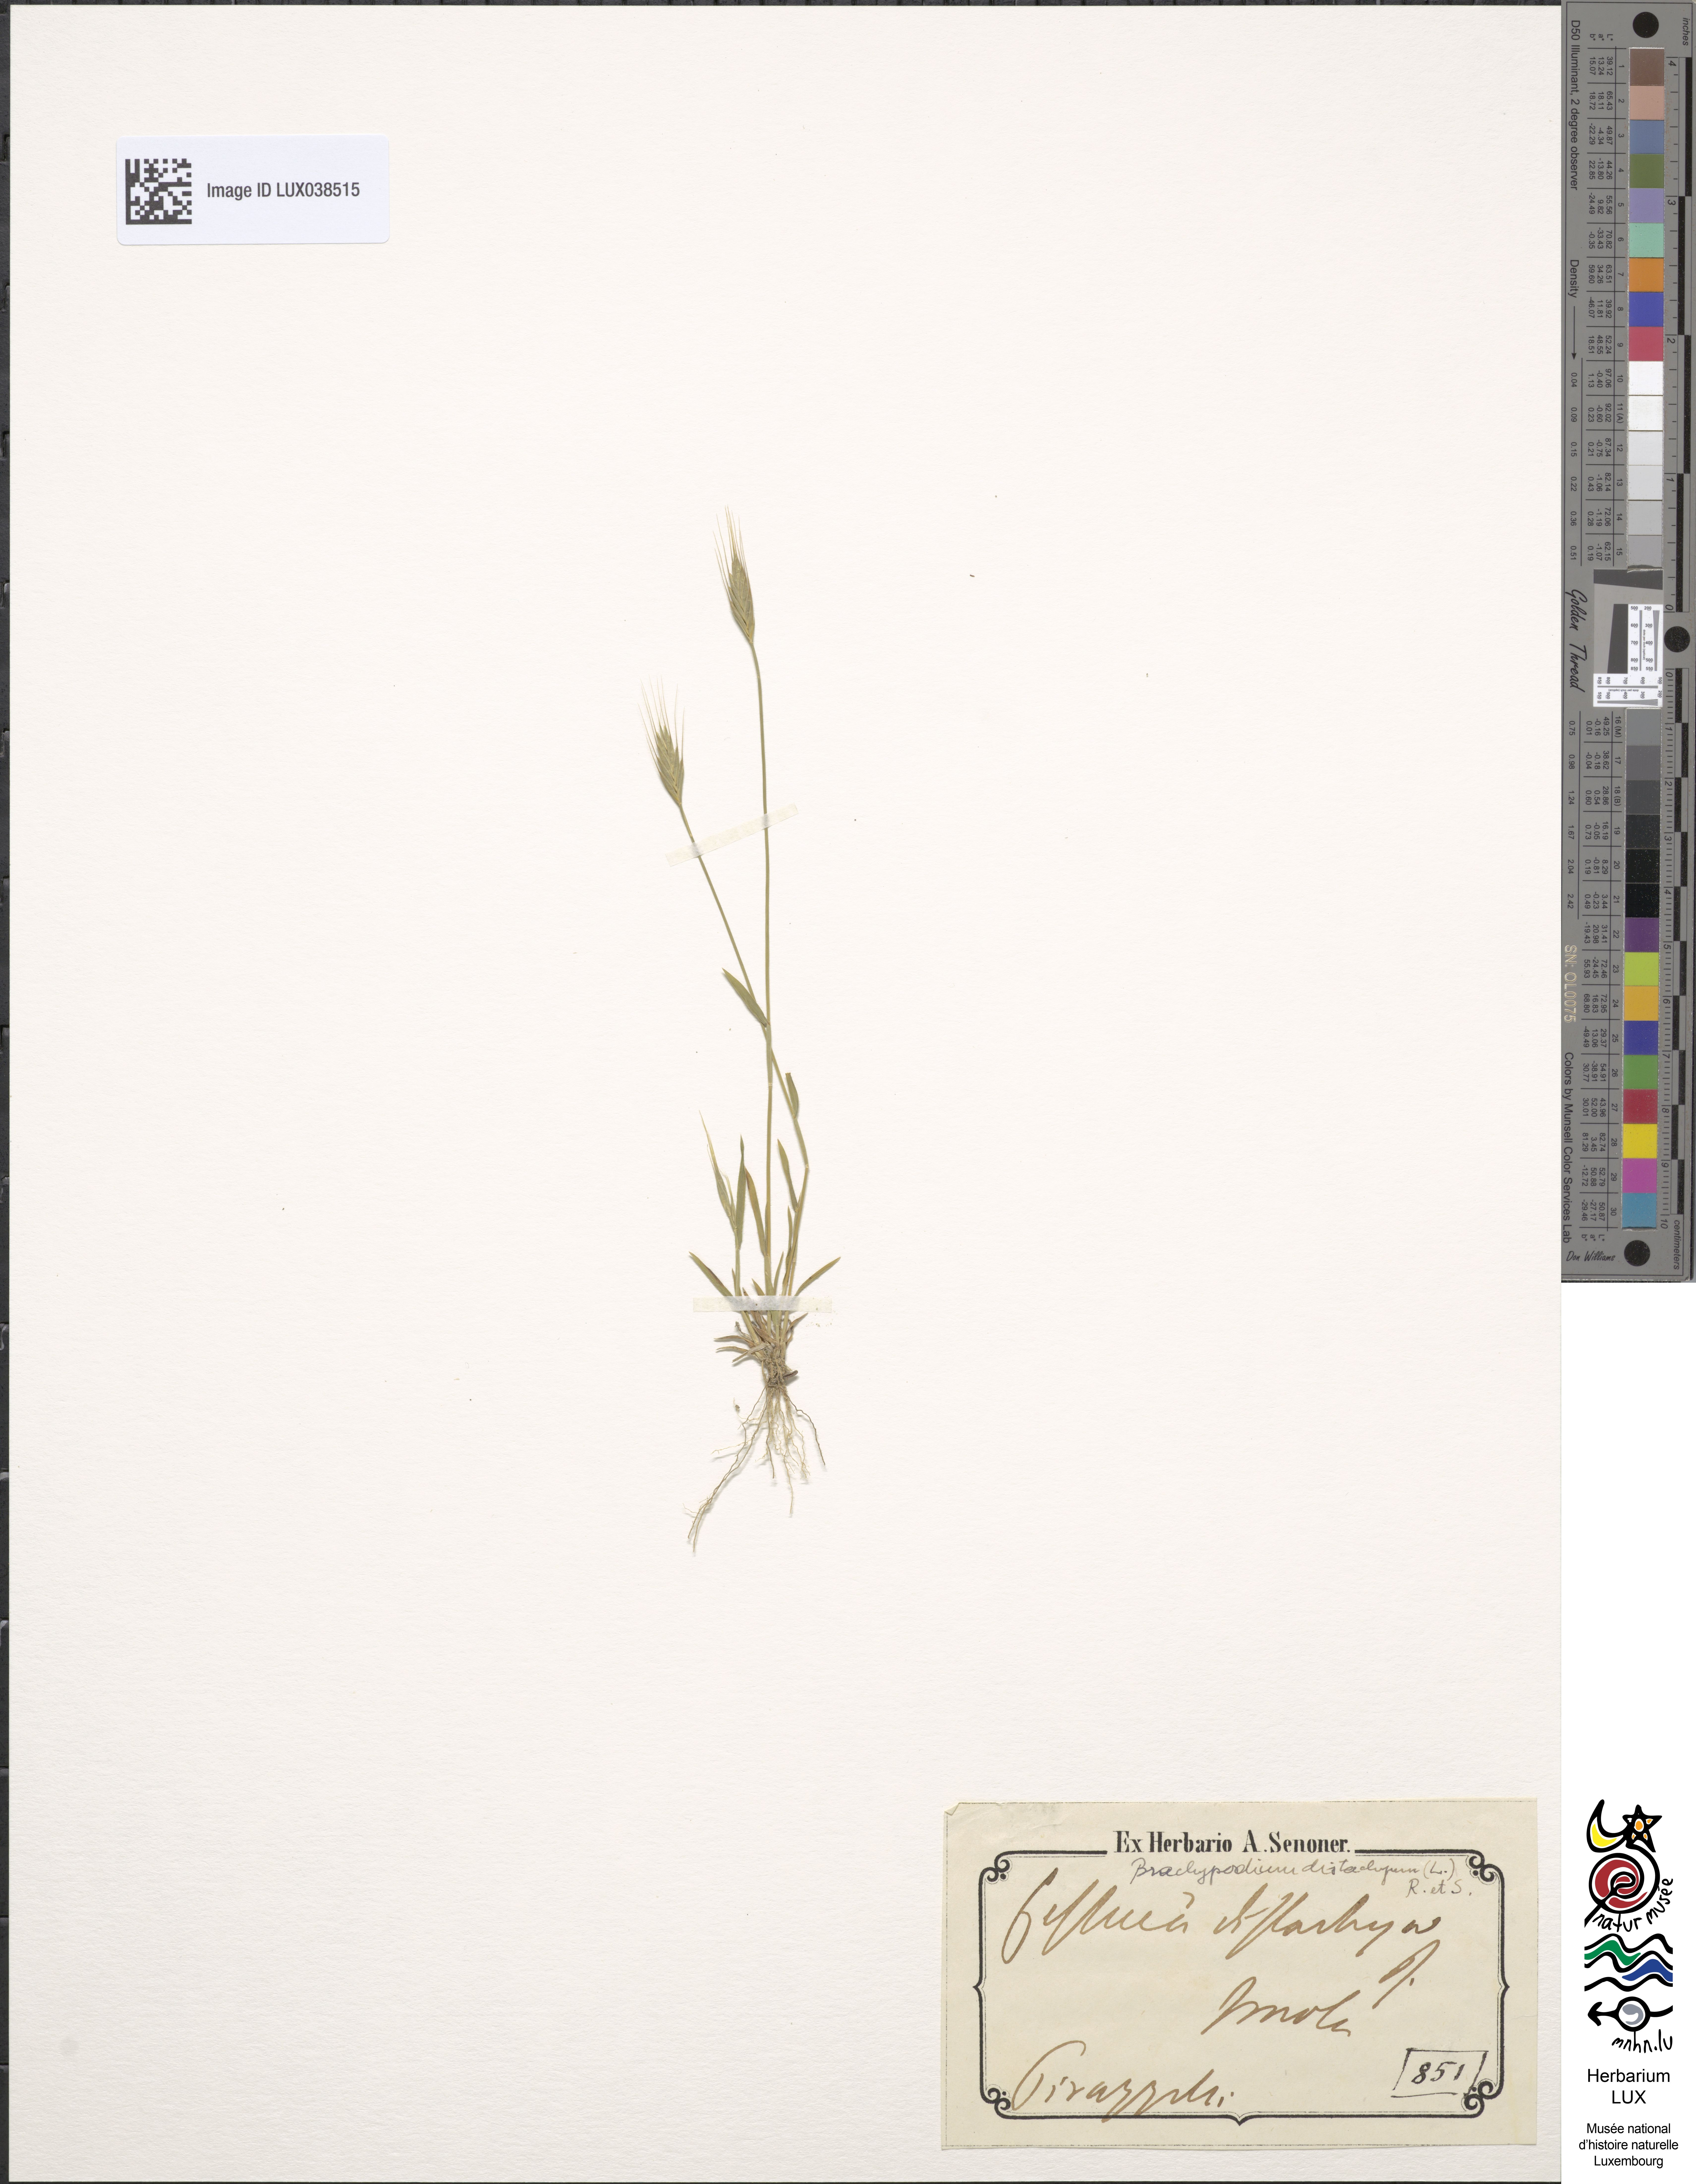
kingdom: Plantae
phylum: Tracheophyta
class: Liliopsida
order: Poales
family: Poaceae
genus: Brachypodium
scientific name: Brachypodium distachyon
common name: Stiff brome
